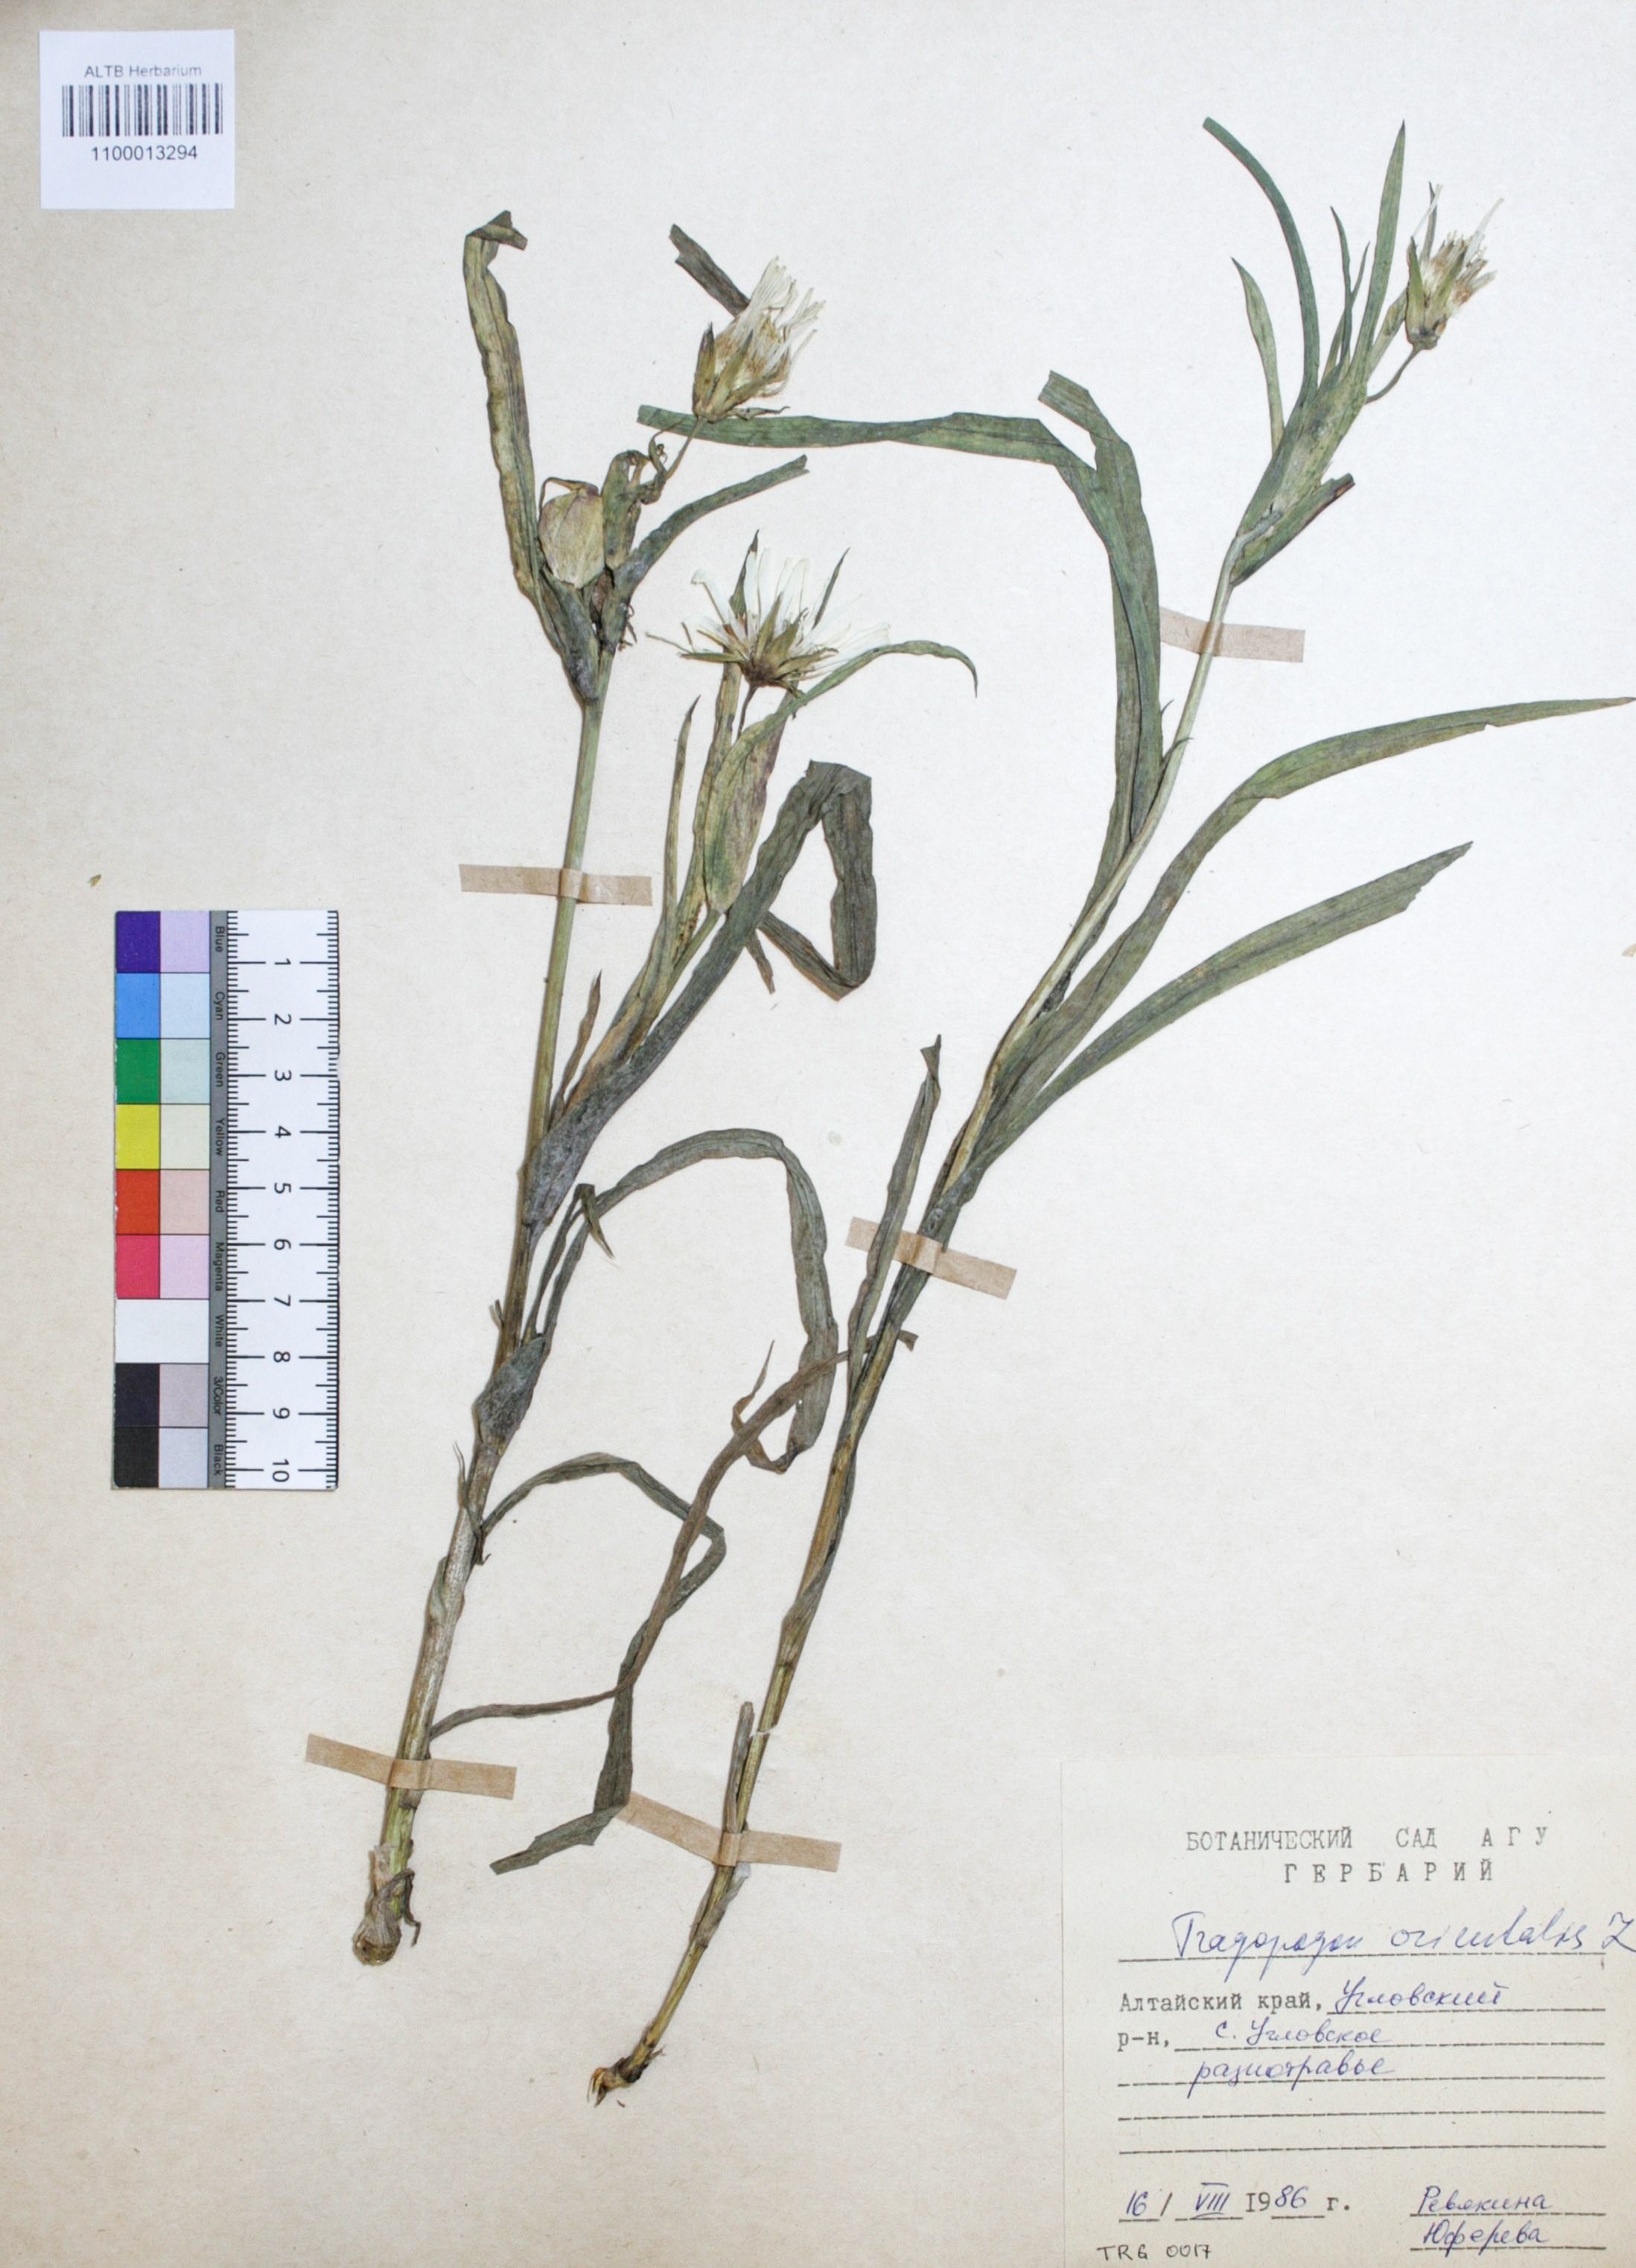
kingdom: Plantae
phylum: Tracheophyta
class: Magnoliopsida
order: Asterales
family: Asteraceae
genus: Tragopogon
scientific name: Tragopogon orientalis
